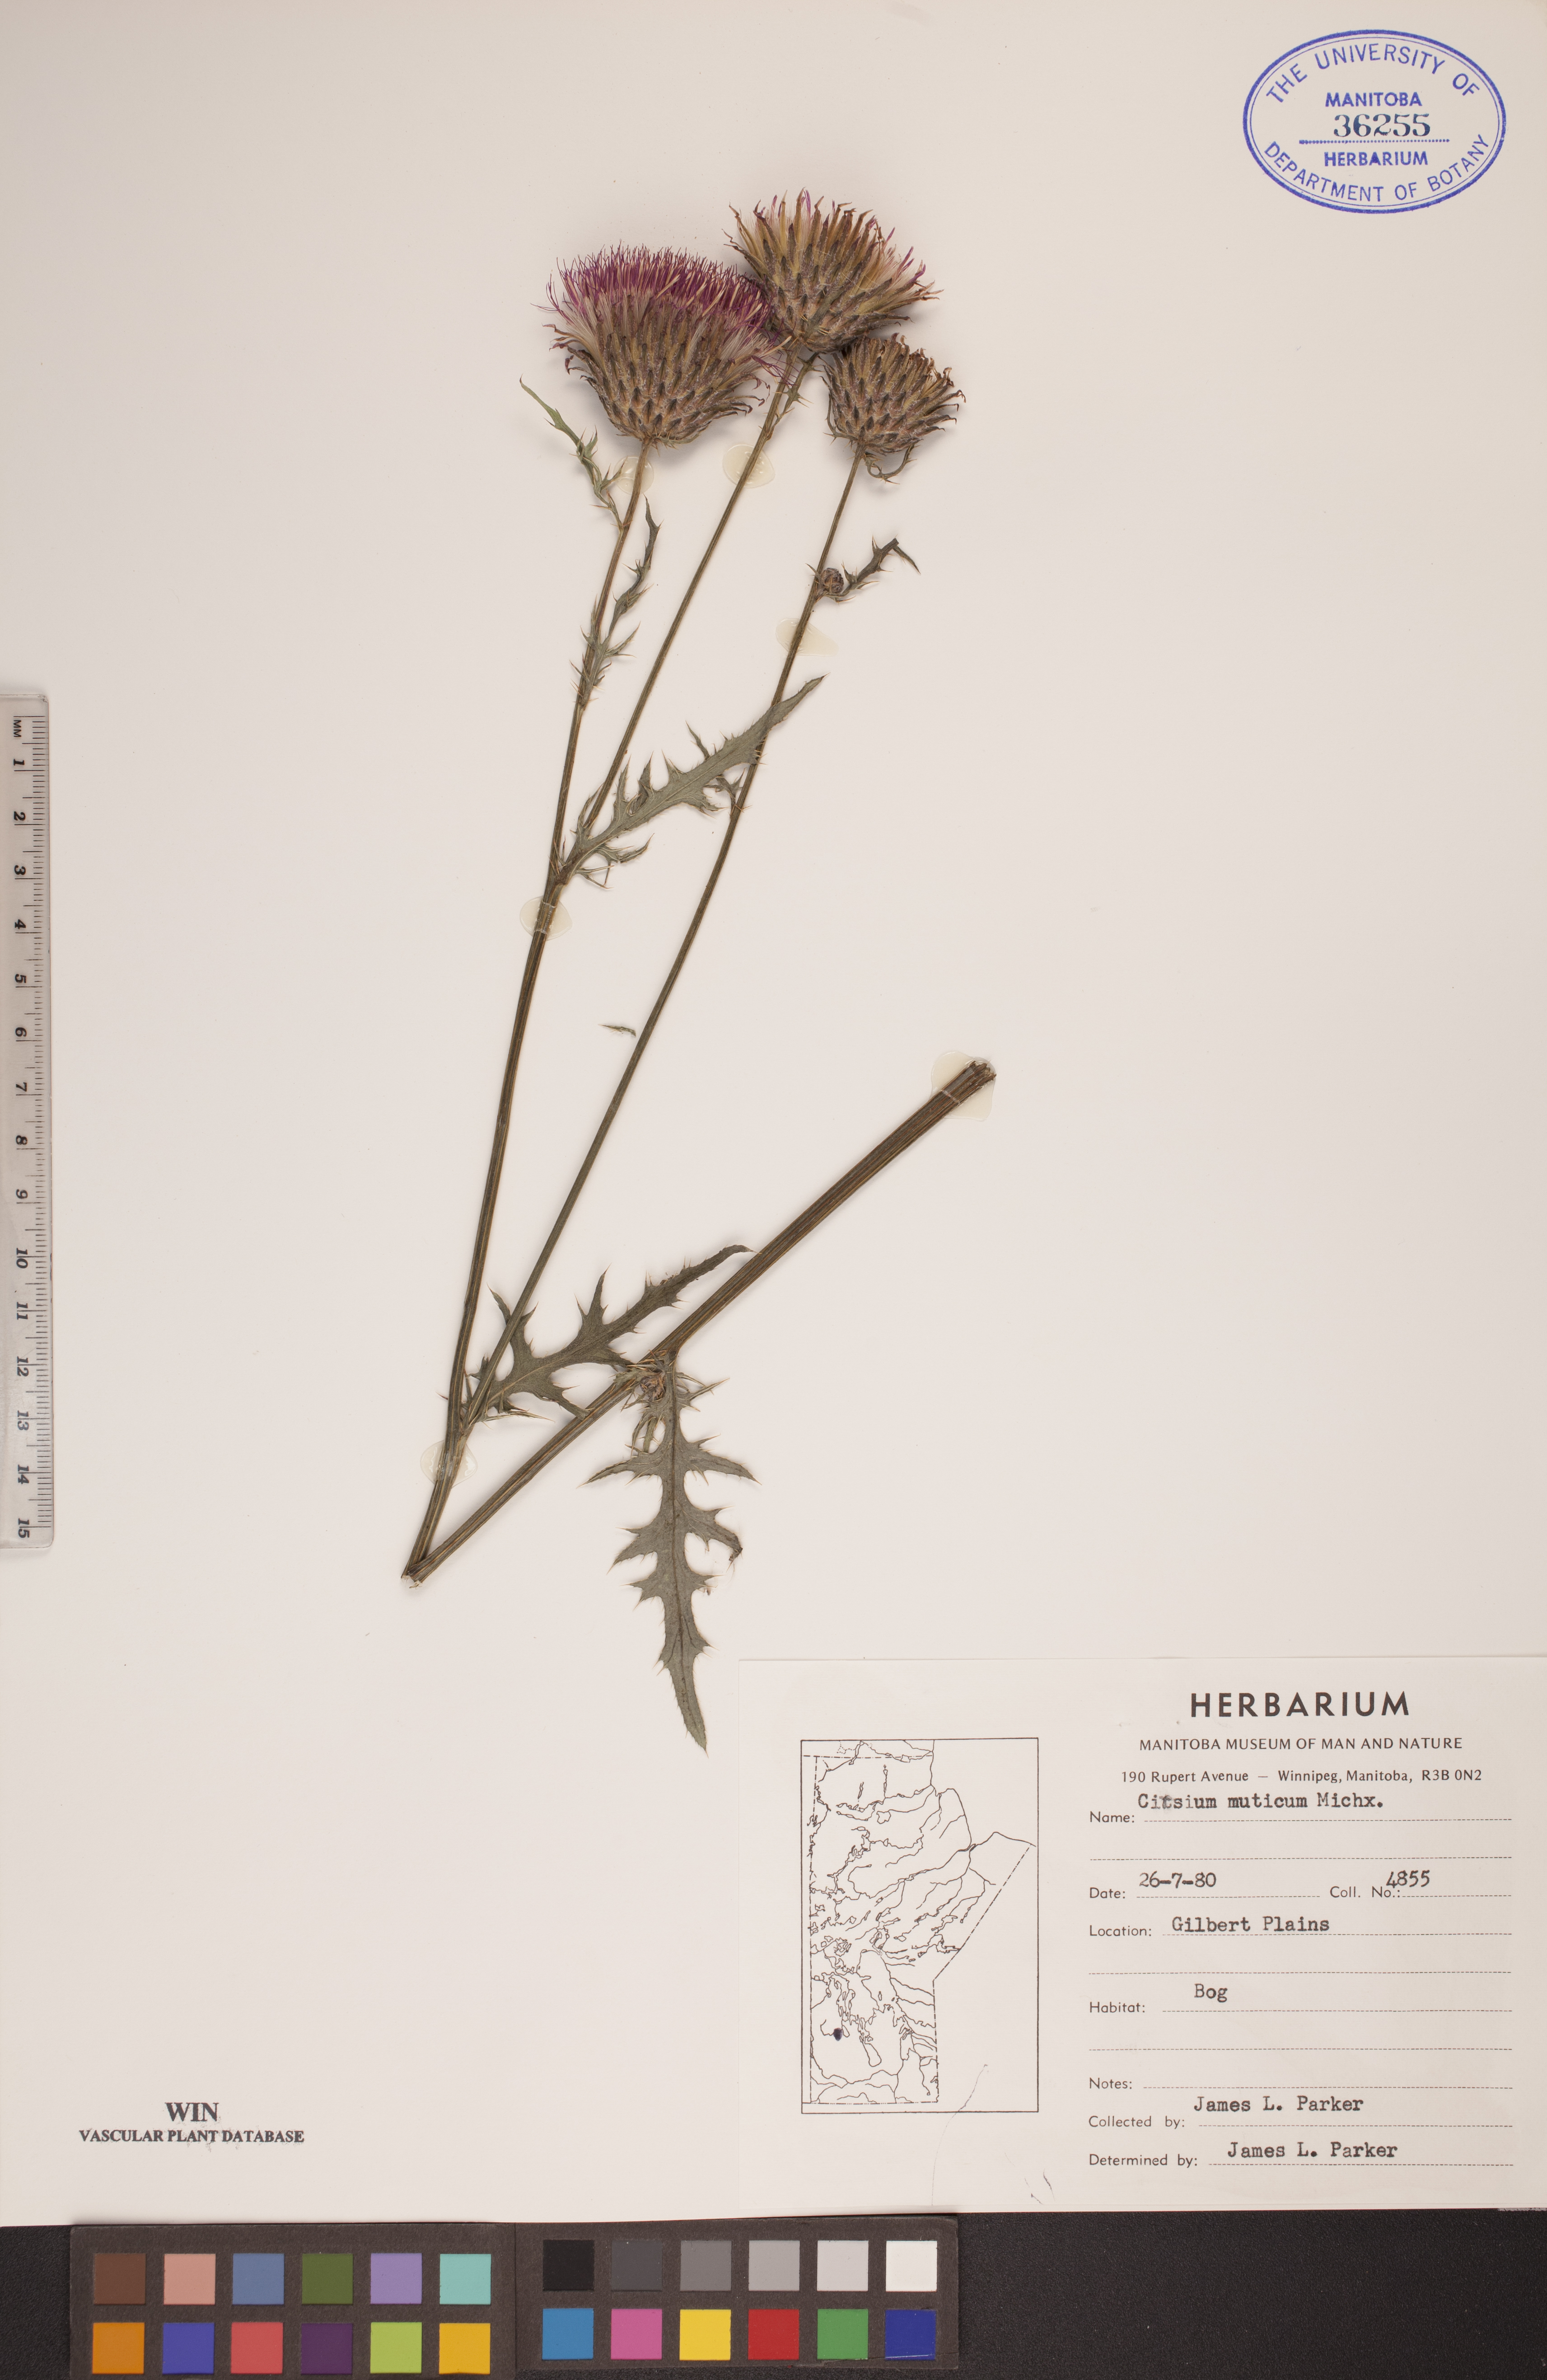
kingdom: Plantae
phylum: Tracheophyta
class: Magnoliopsida
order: Asterales
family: Asteraceae
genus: Cirsium
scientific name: Cirsium muticum
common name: Dunce-nettle
